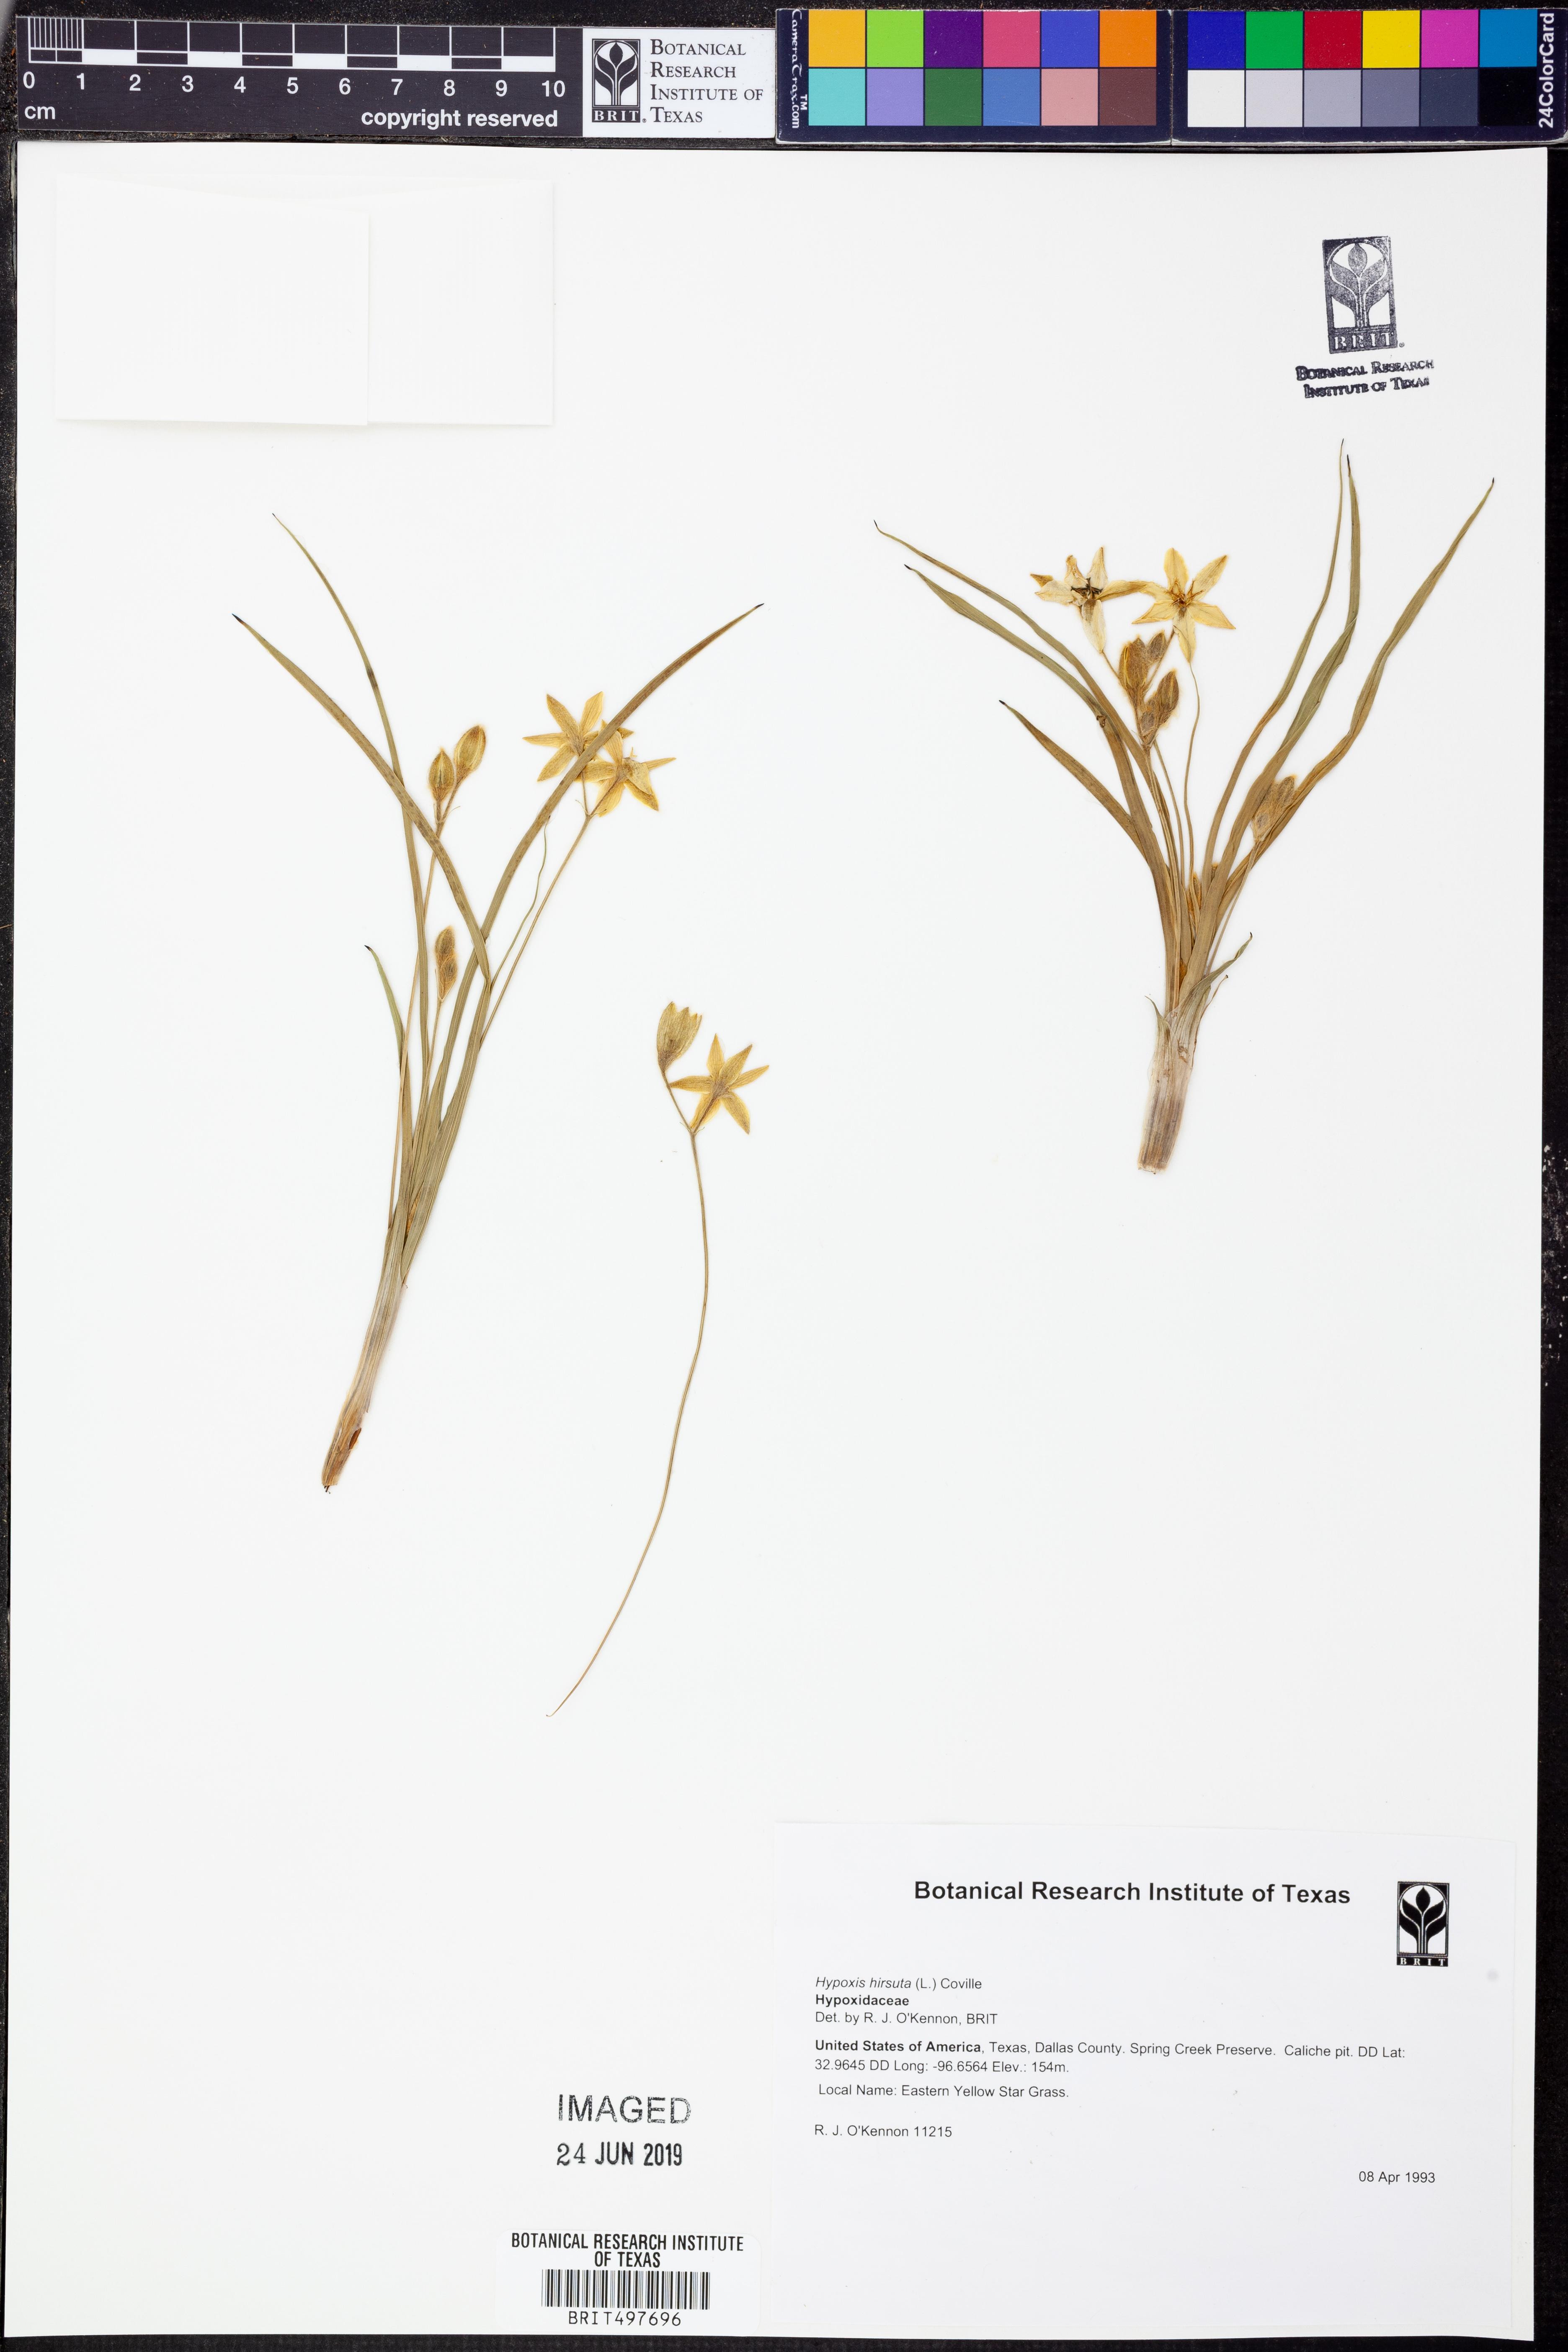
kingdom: Plantae
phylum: Tracheophyta
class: Liliopsida
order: Asparagales
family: Hypoxidaceae
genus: Hypoxis
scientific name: Hypoxis hirsuta
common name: Common goldstar
